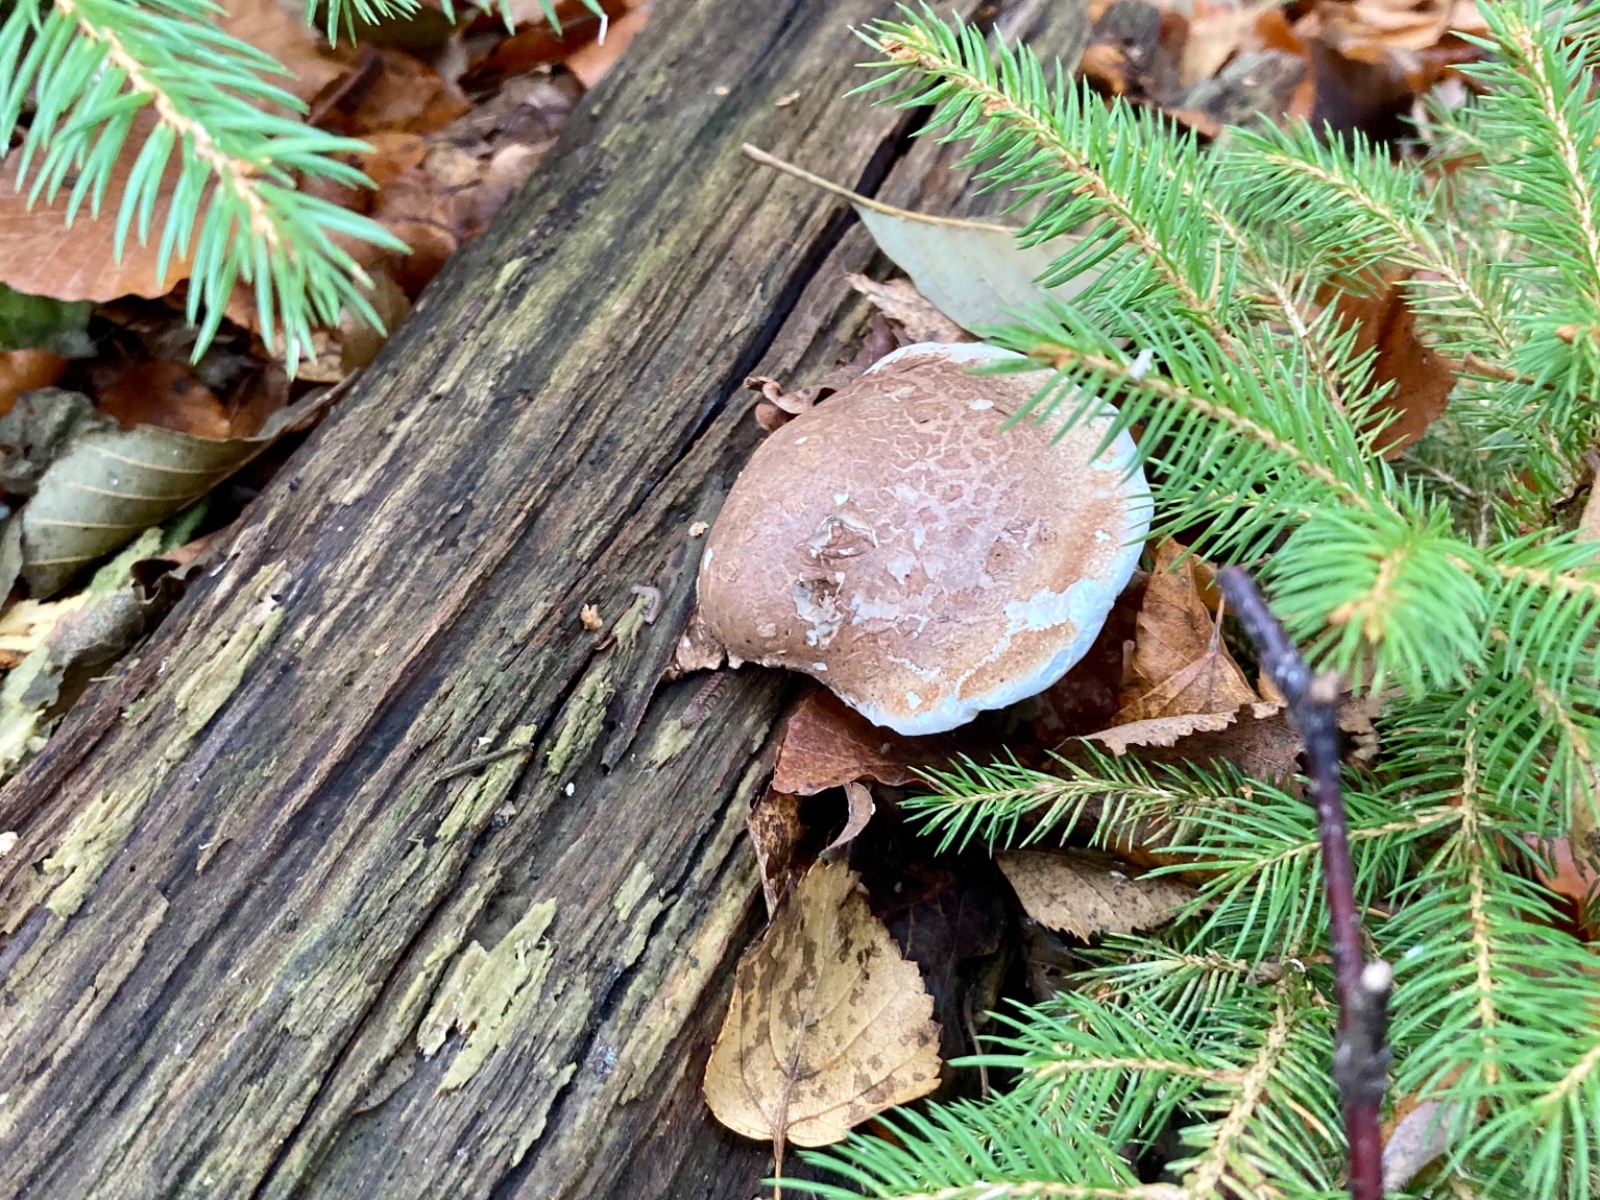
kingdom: Fungi
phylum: Basidiomycota
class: Agaricomycetes
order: Polyporales
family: Fomitopsidaceae
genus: Fomitopsis
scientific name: Fomitopsis betulina
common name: birkeporesvamp
